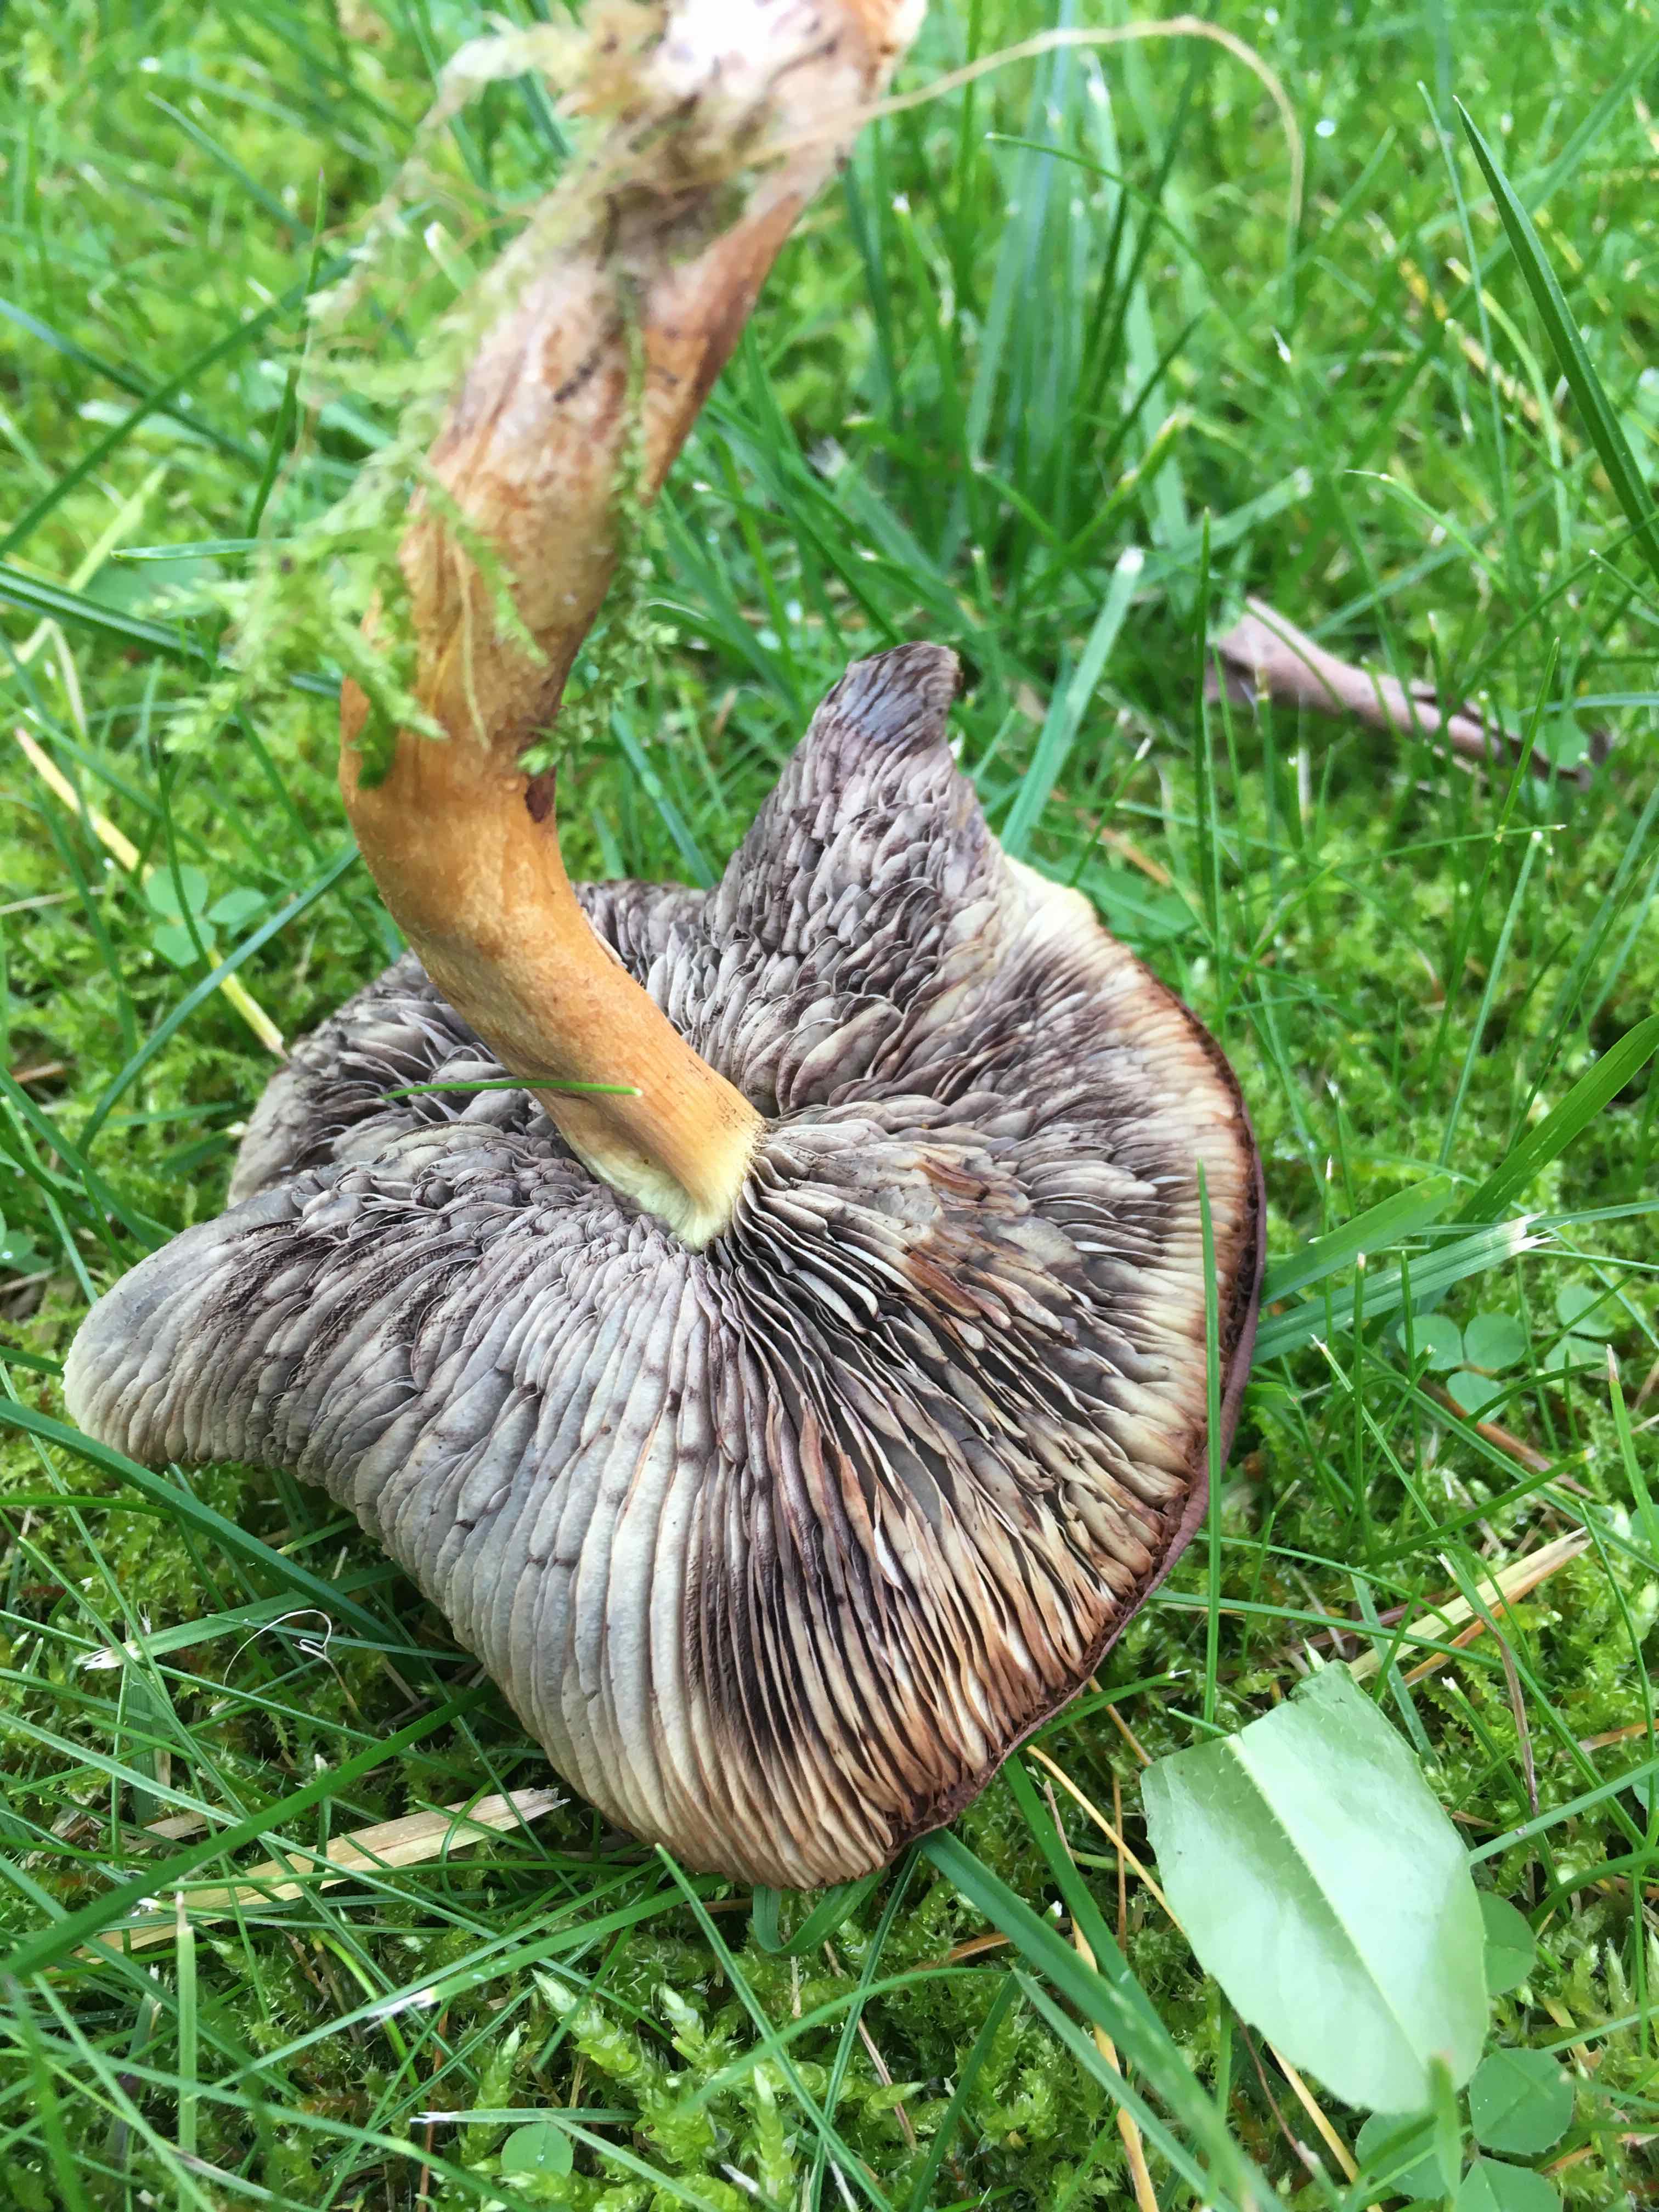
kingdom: Fungi
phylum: Basidiomycota
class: Agaricomycetes
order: Agaricales
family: Strophariaceae
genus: Hypholoma
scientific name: Hypholoma fasciculare
